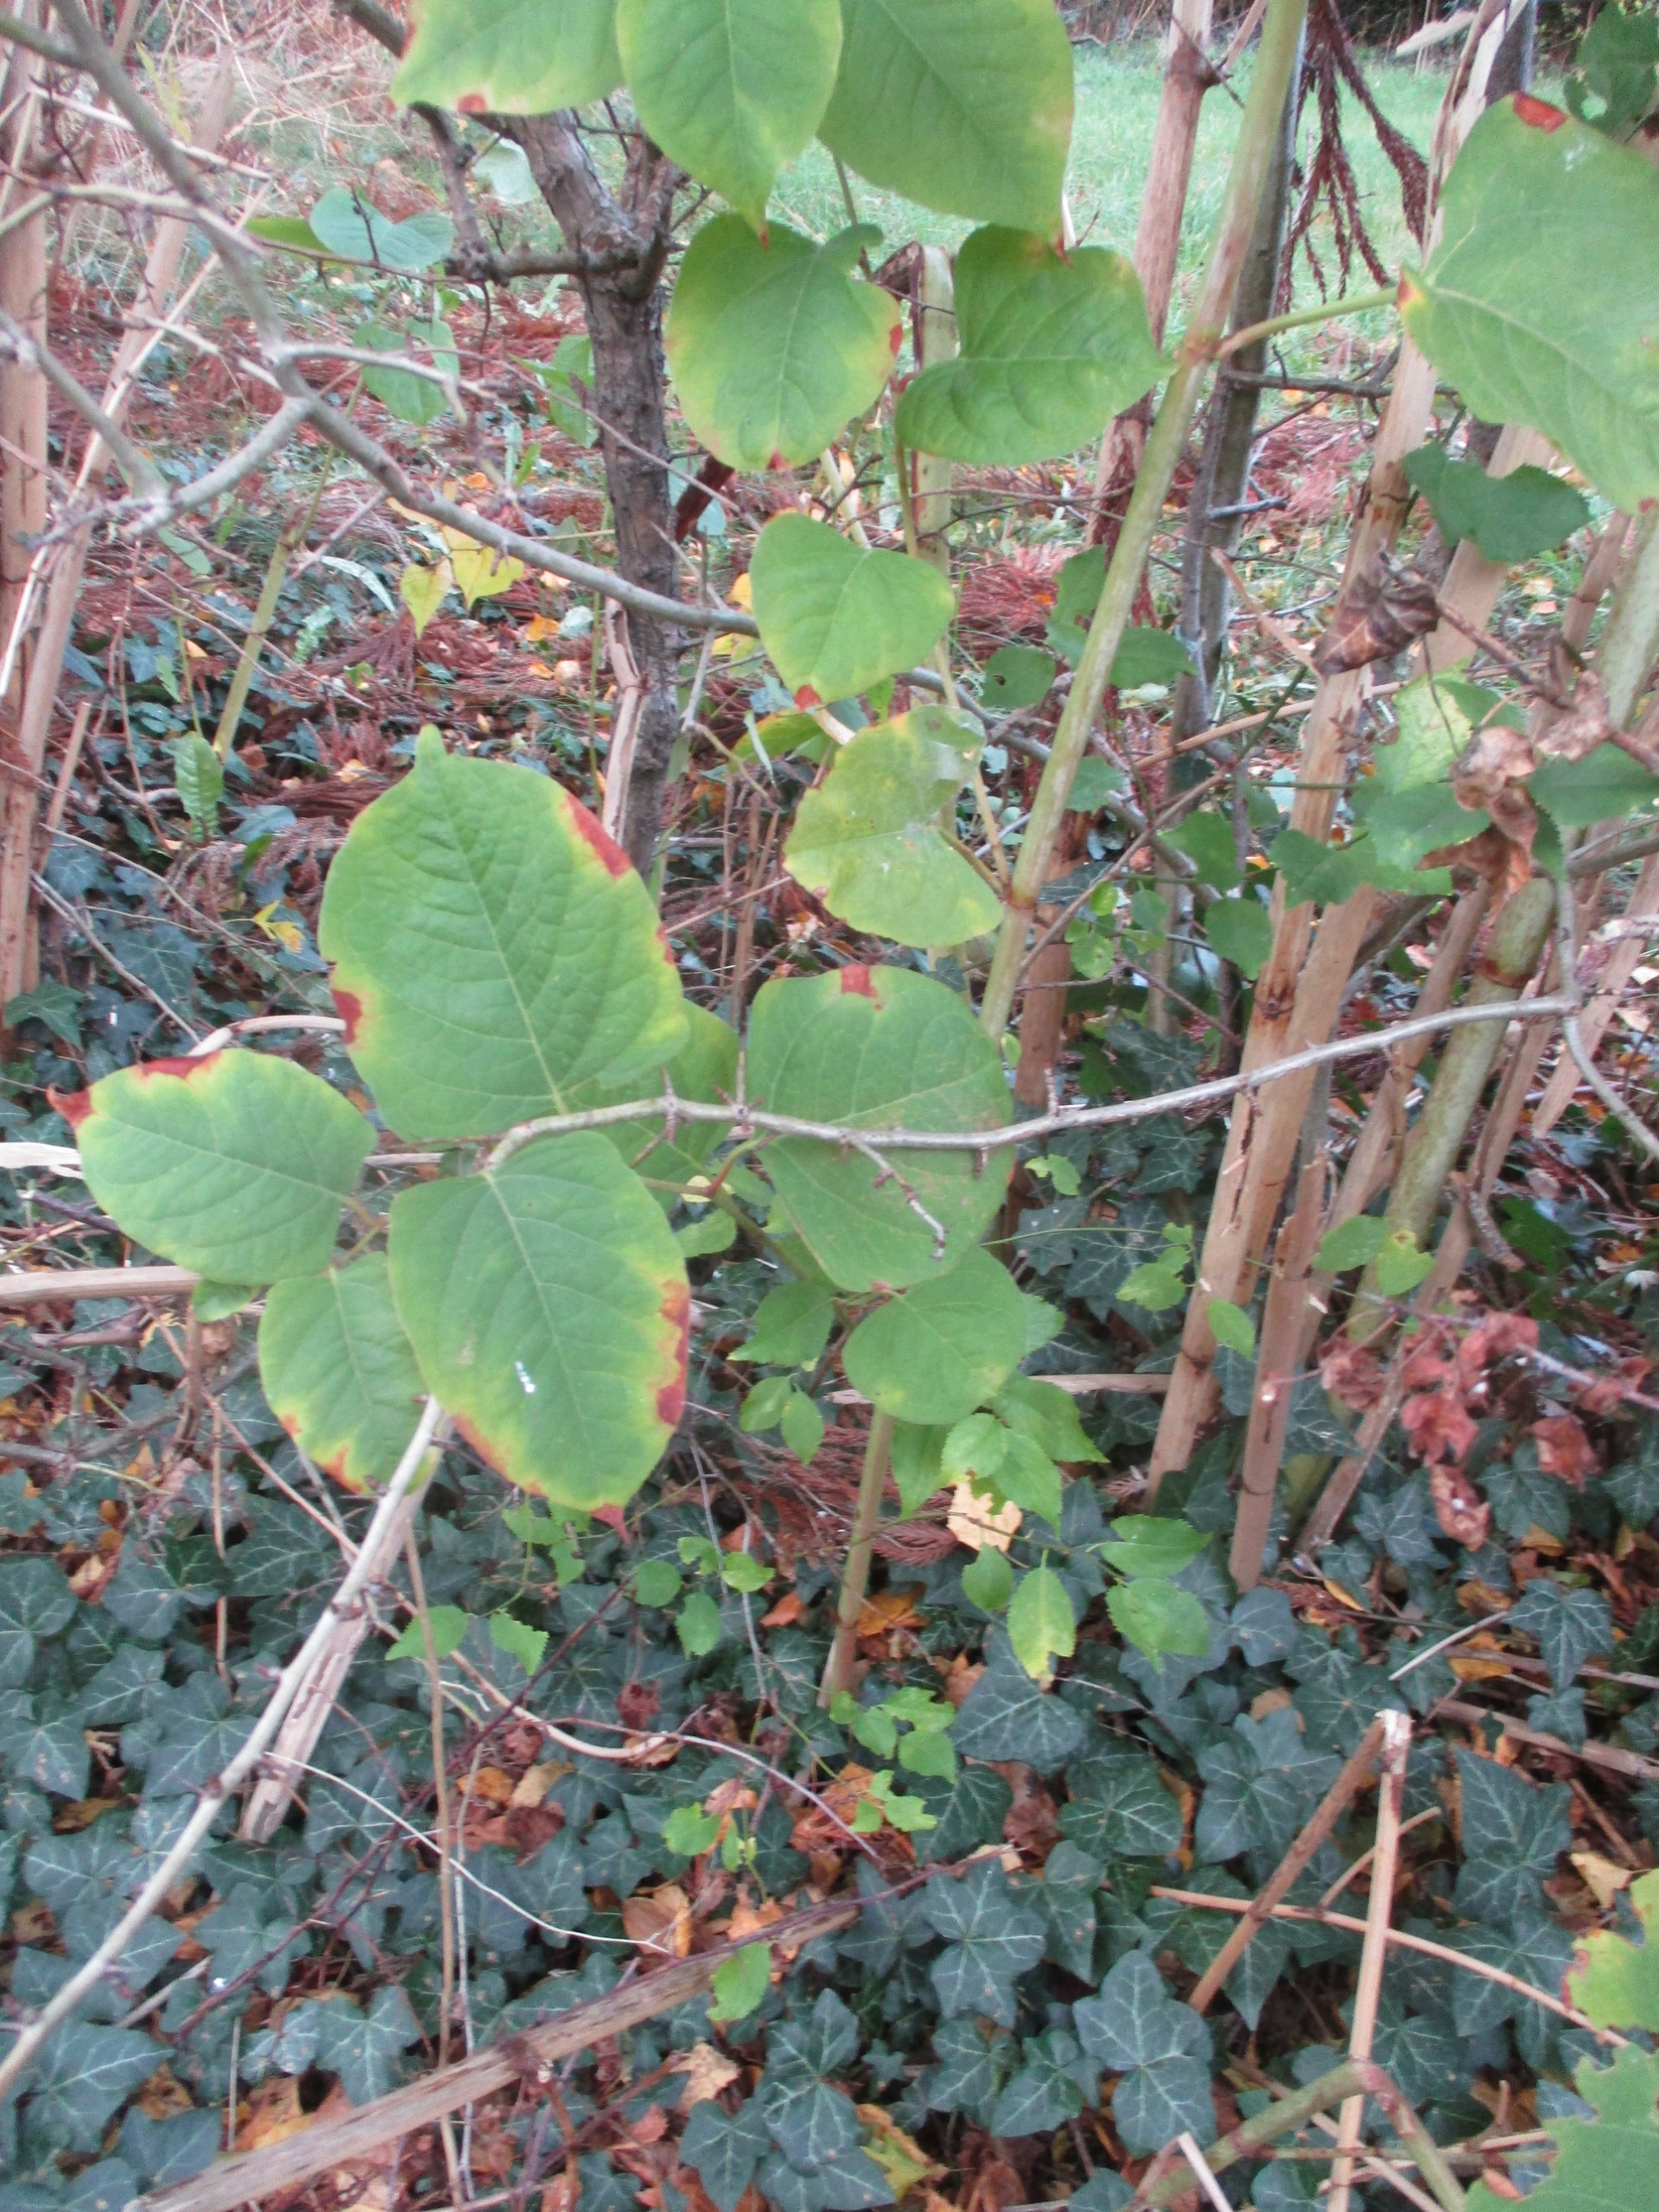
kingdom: Plantae
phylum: Tracheophyta
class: Magnoliopsida
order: Caryophyllales
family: Polygonaceae
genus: Reynoutria
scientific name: Reynoutria japonica
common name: Japan-pileurt
